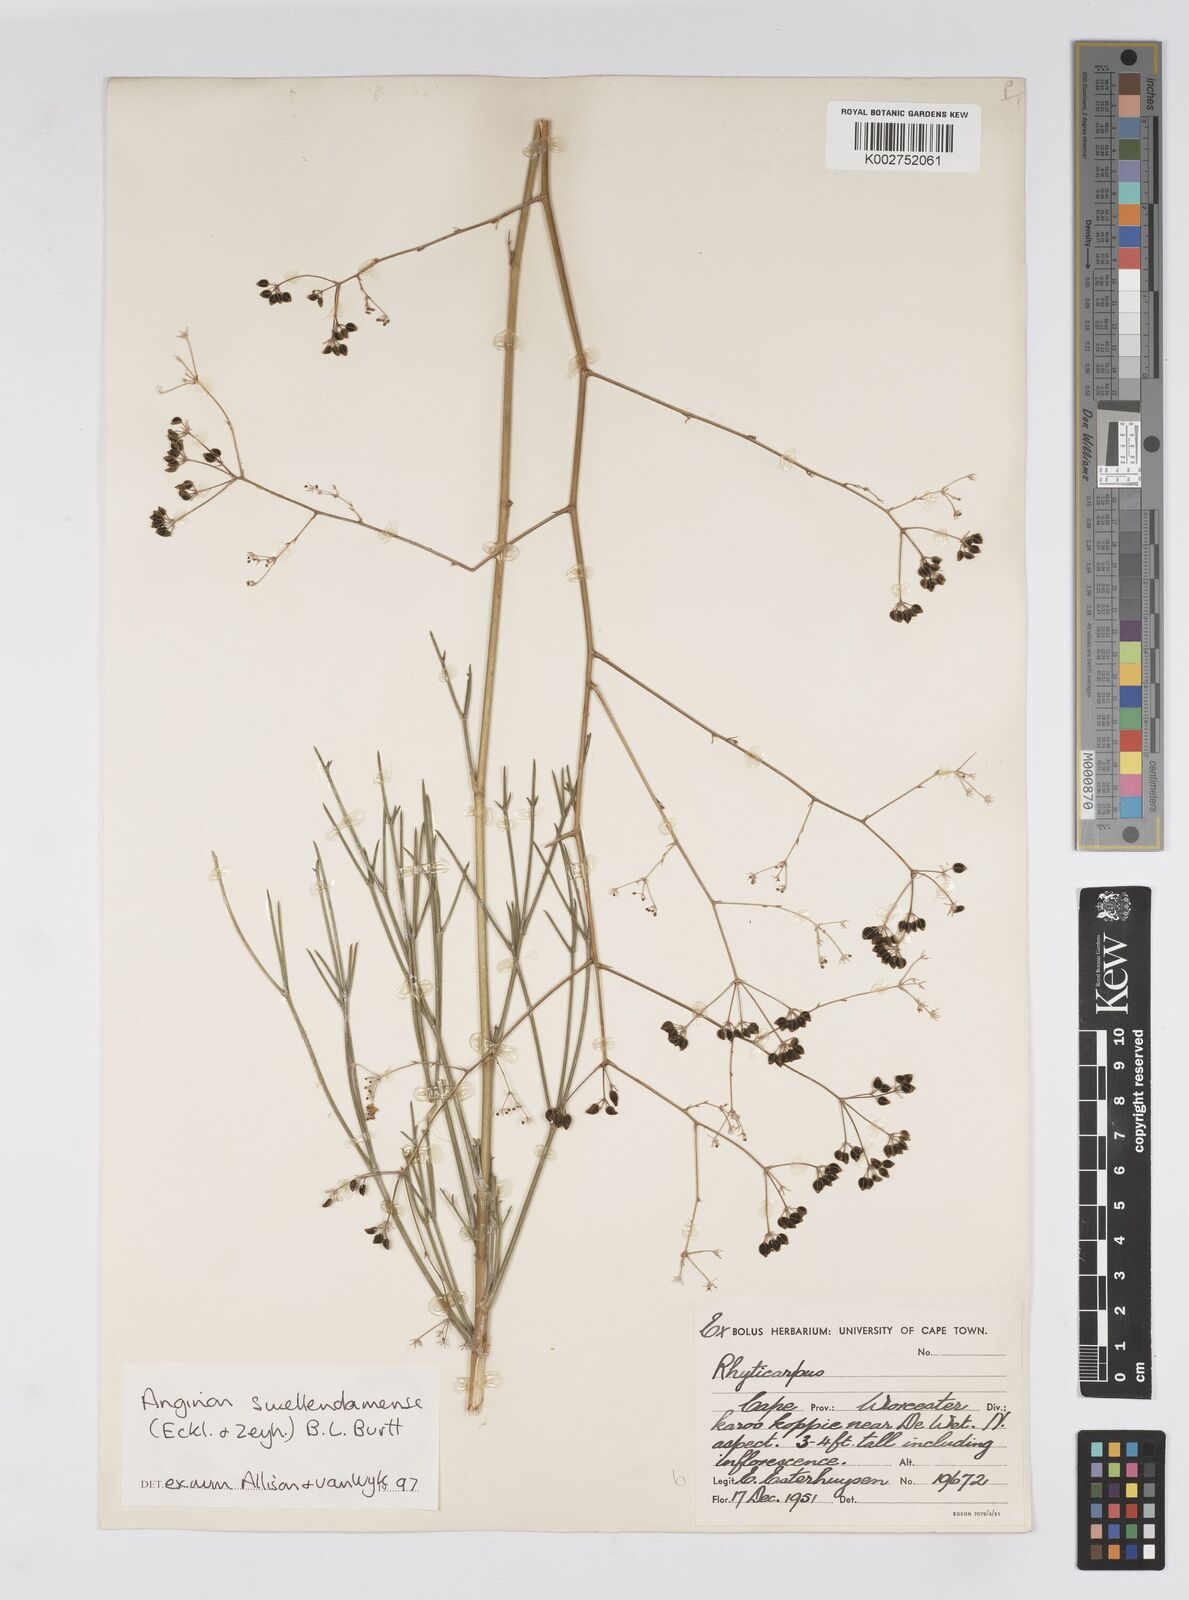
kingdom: Plantae
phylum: Tracheophyta
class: Magnoliopsida
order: Apiales
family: Apiaceae
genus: Anginon
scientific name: Anginon swellendamense
